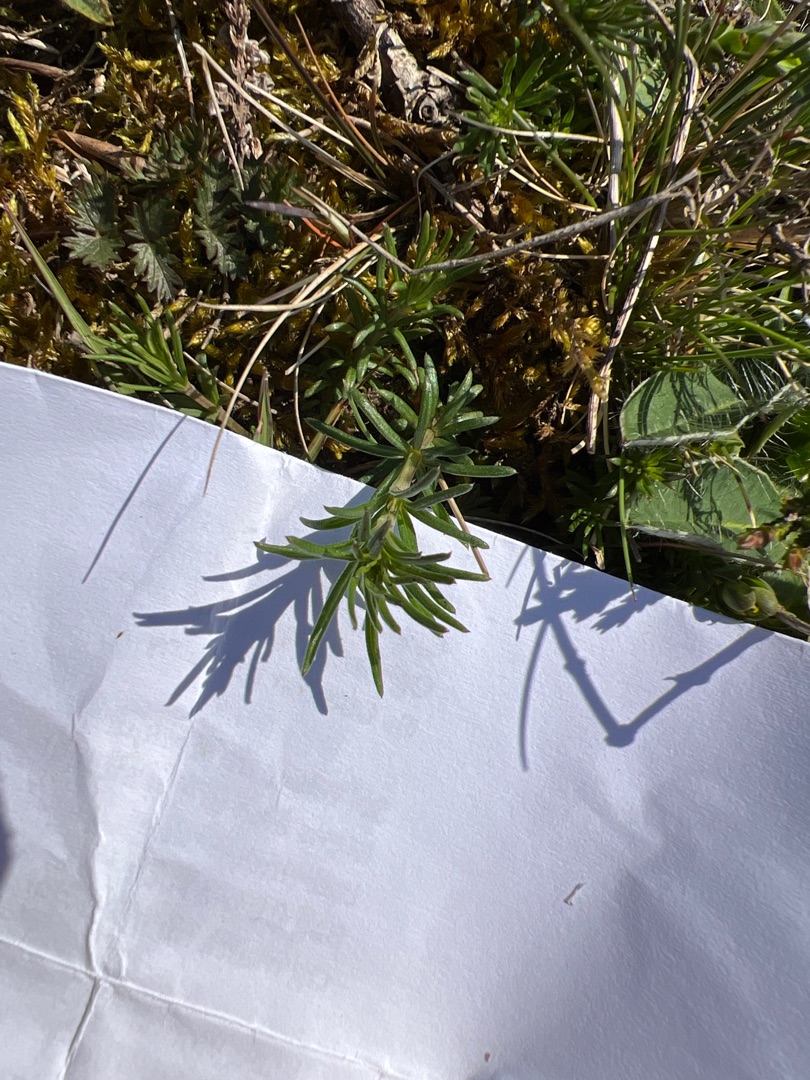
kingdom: Plantae
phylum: Tracheophyta
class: Magnoliopsida
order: Gentianales
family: Rubiaceae
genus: Galium
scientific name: Galium verum
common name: Gul snerre
